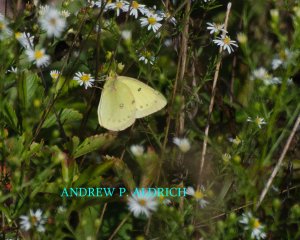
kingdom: Animalia
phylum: Arthropoda
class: Insecta
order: Lepidoptera
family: Pieridae
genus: Colias
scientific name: Colias philodice
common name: Clouded Sulphur
